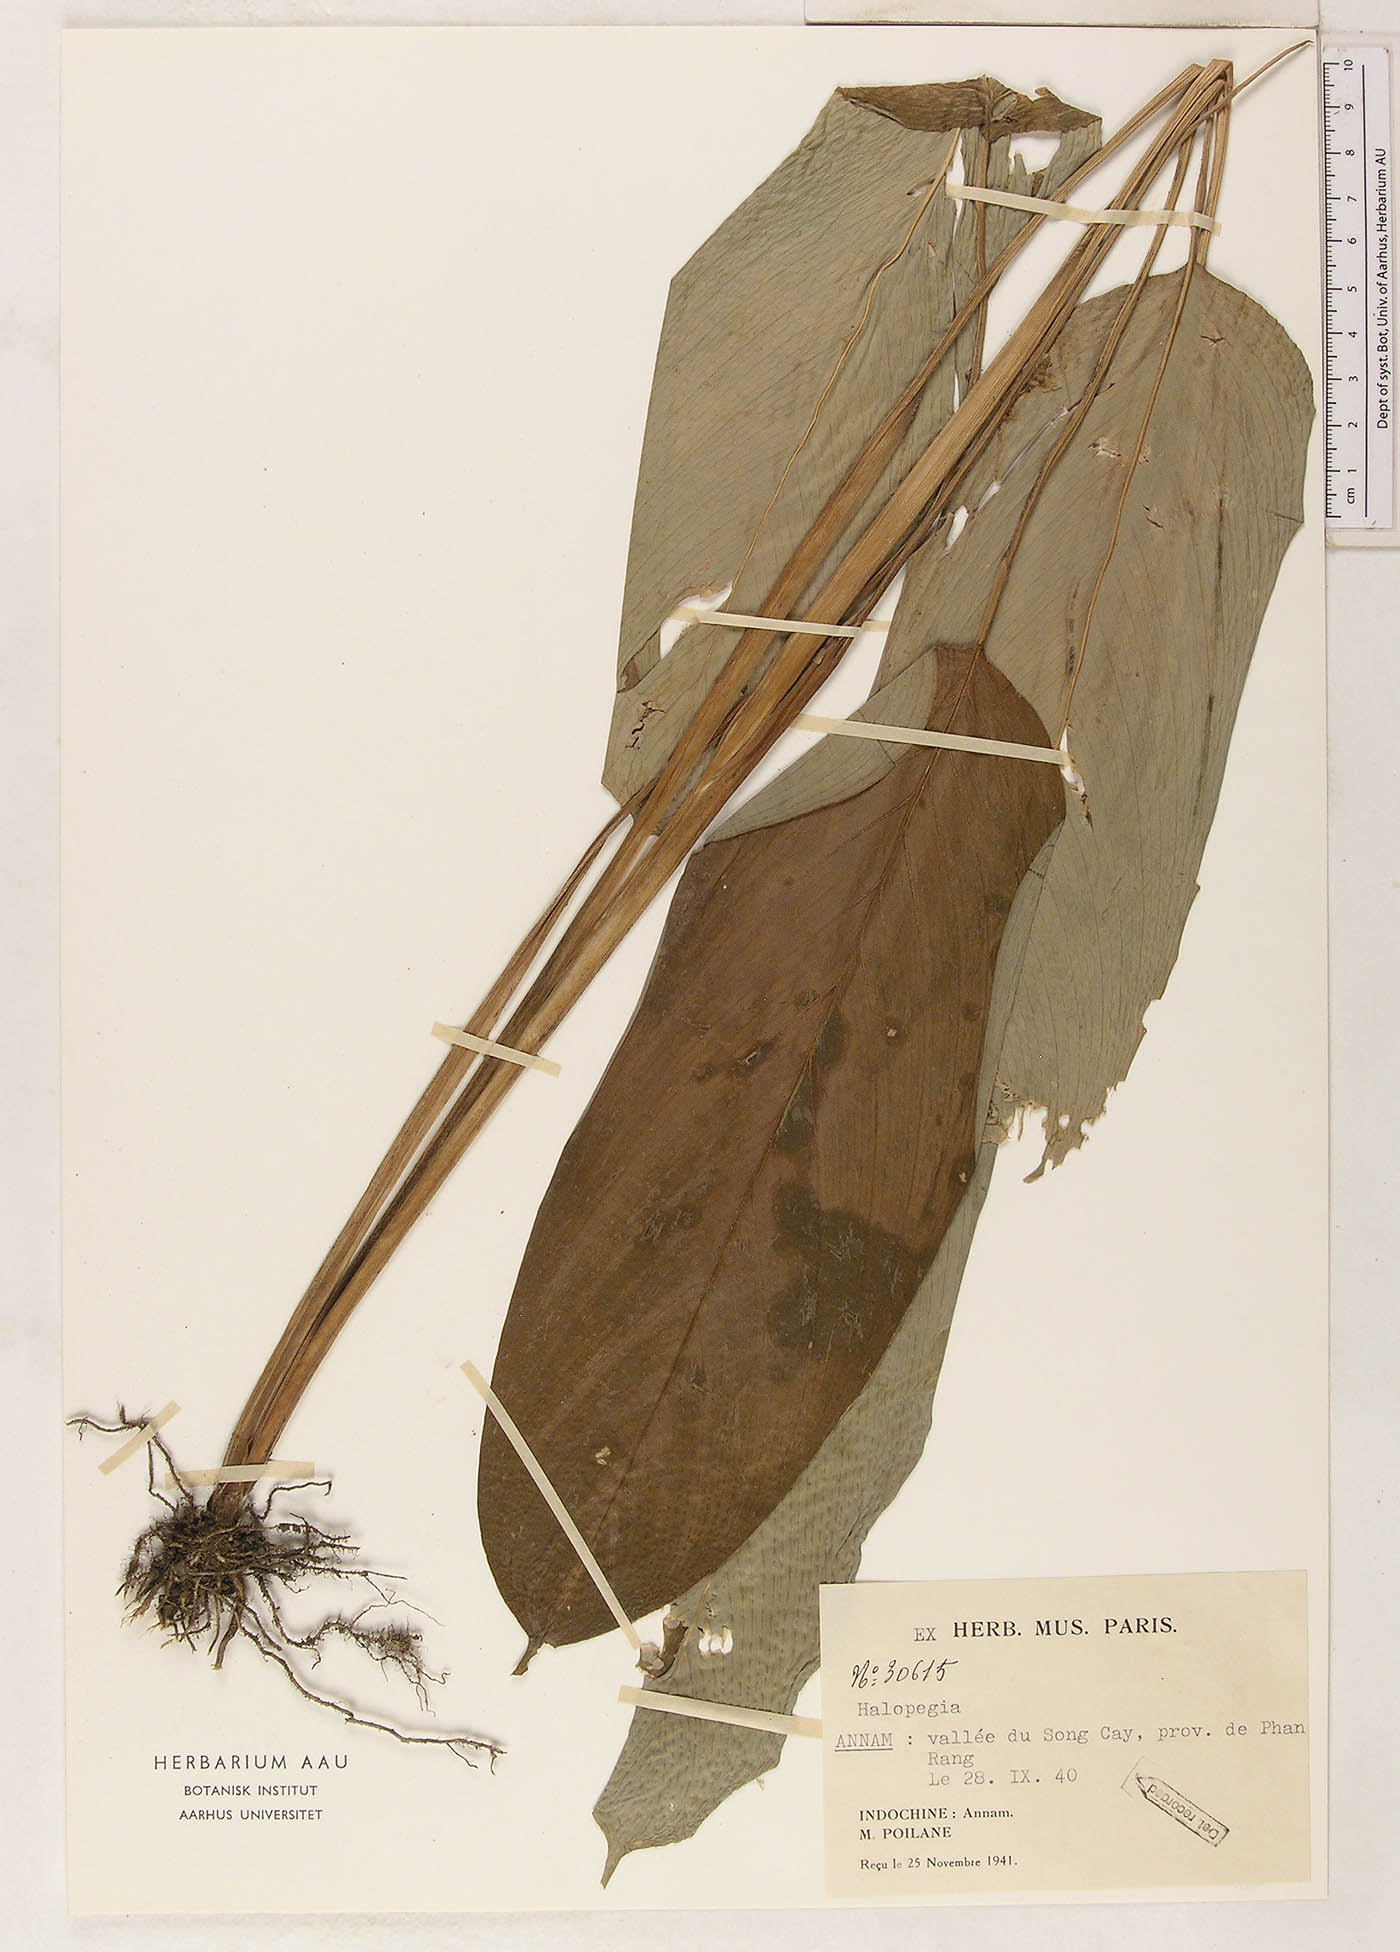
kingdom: Plantae
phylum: Tracheophyta
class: Liliopsida
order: Zingiberales
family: Marantaceae
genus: Halopegia
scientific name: Halopegia
